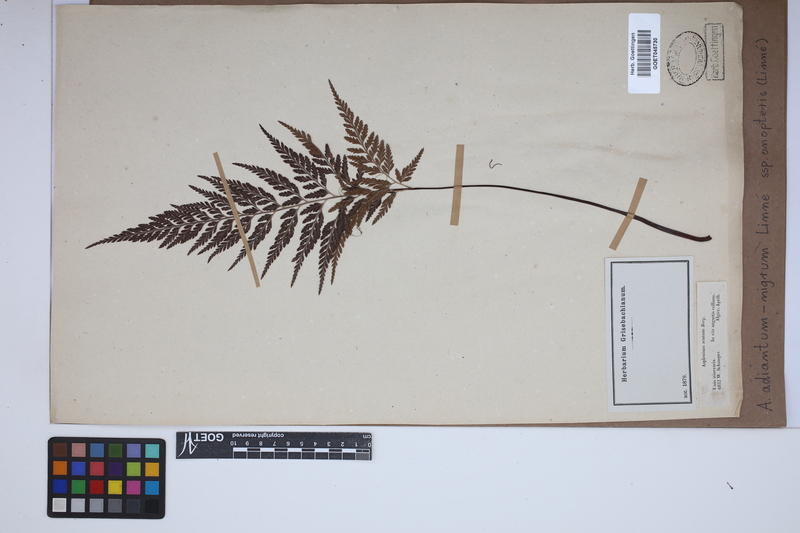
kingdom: Plantae
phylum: Tracheophyta
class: Polypodiopsida
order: Polypodiales
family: Aspleniaceae
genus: Asplenium
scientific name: Asplenium onopteris
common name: Irish spleenwort
